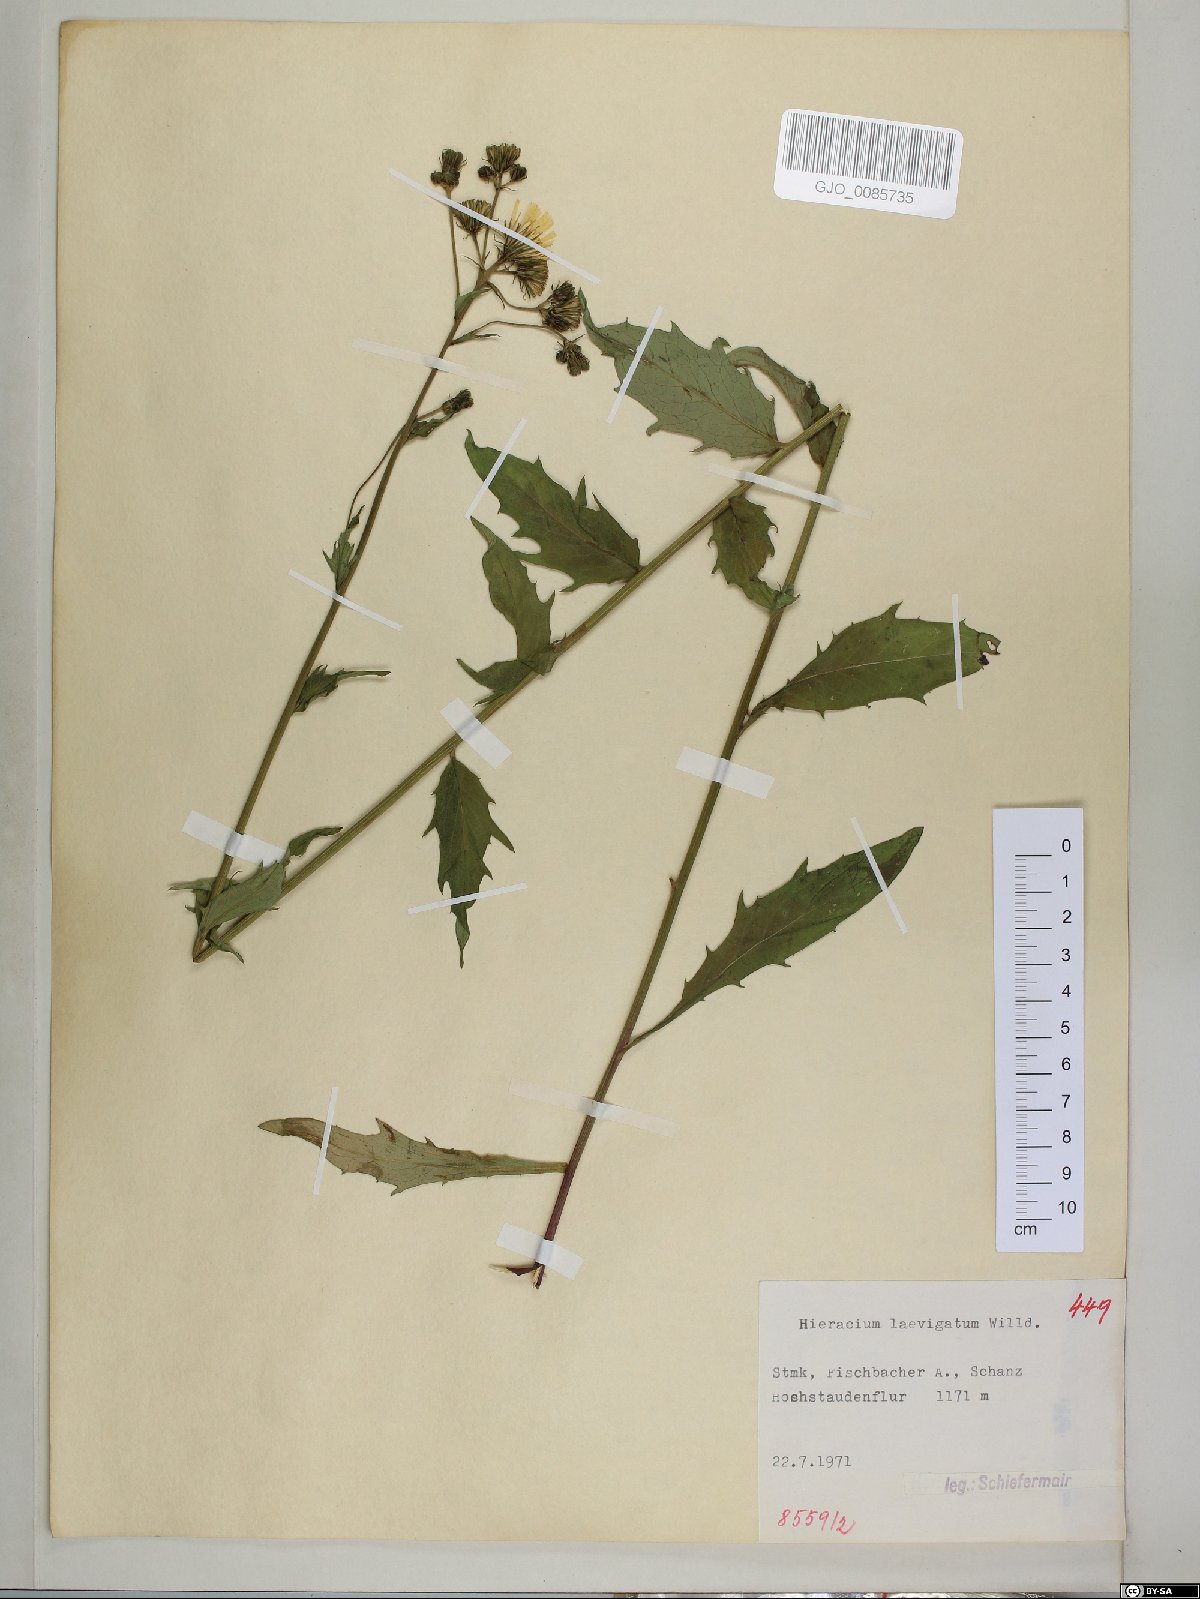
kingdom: Plantae
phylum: Tracheophyta
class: Magnoliopsida
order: Asterales
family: Asteraceae
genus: Hieracium
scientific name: Hieracium laevigatum
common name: Smooth hawkweed
